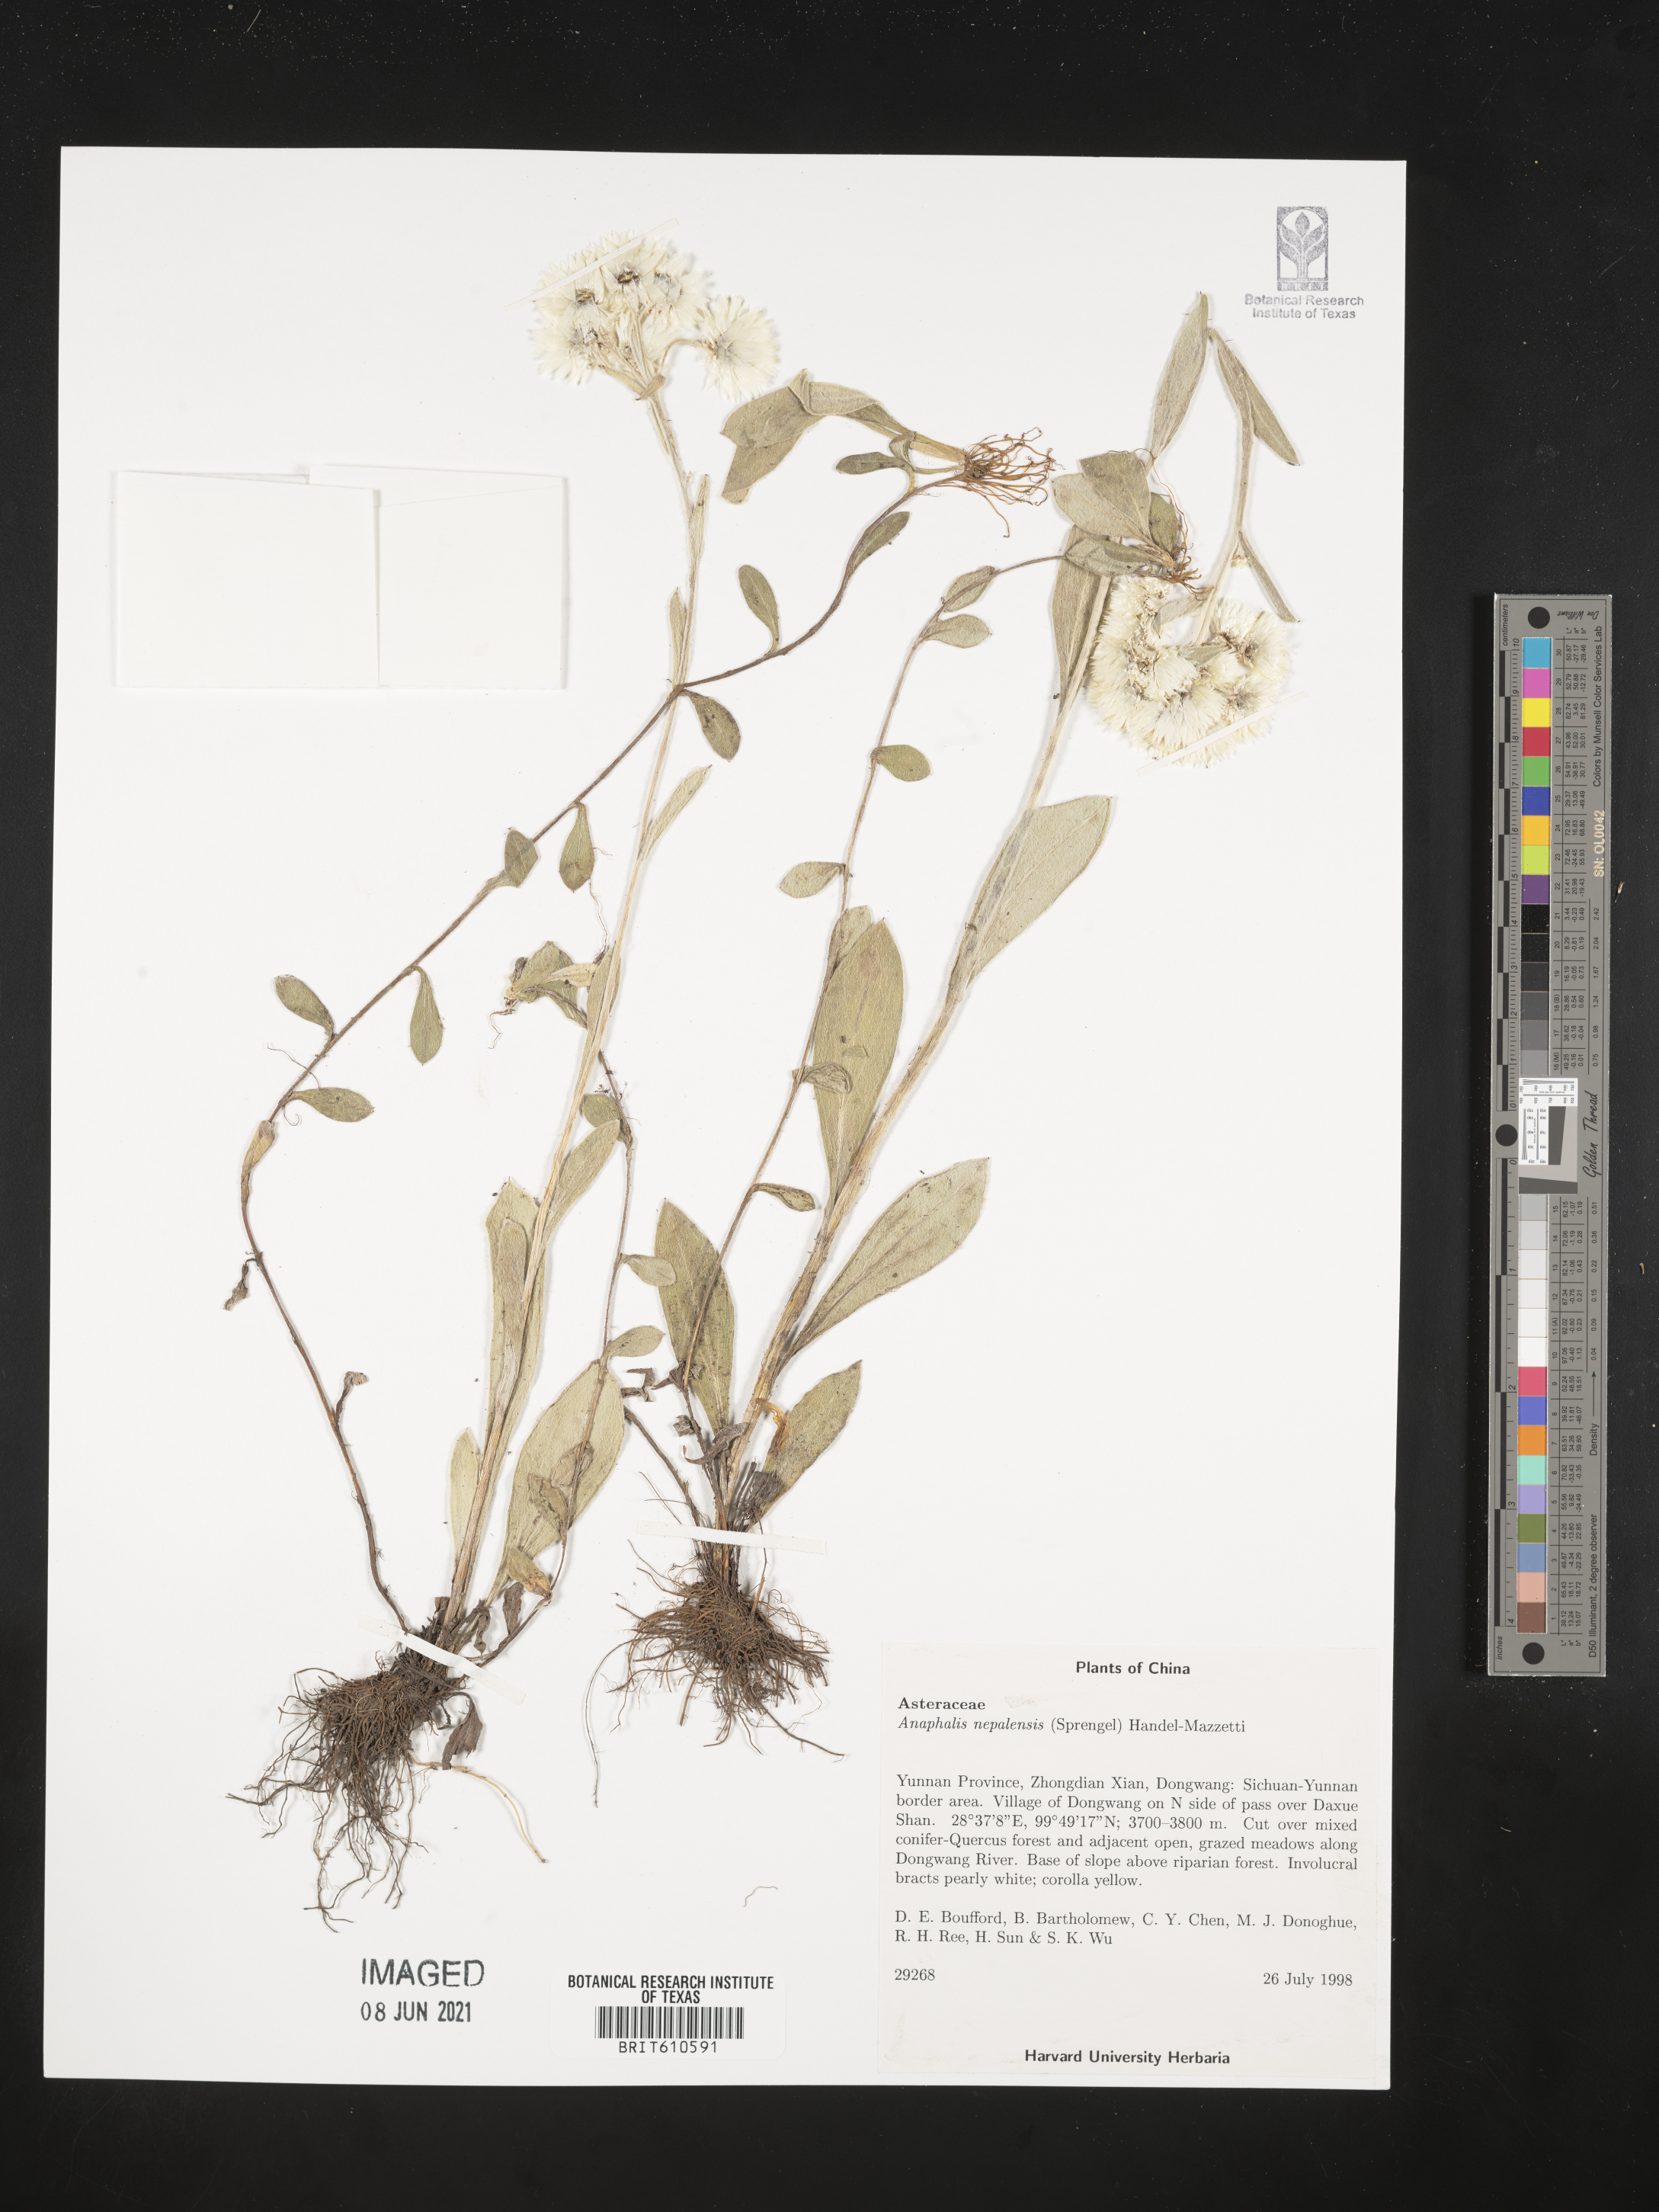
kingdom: Plantae
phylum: Tracheophyta
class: Magnoliopsida
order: Asterales
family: Asteraceae
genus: Anaphalis
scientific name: Anaphalis nepalensis
